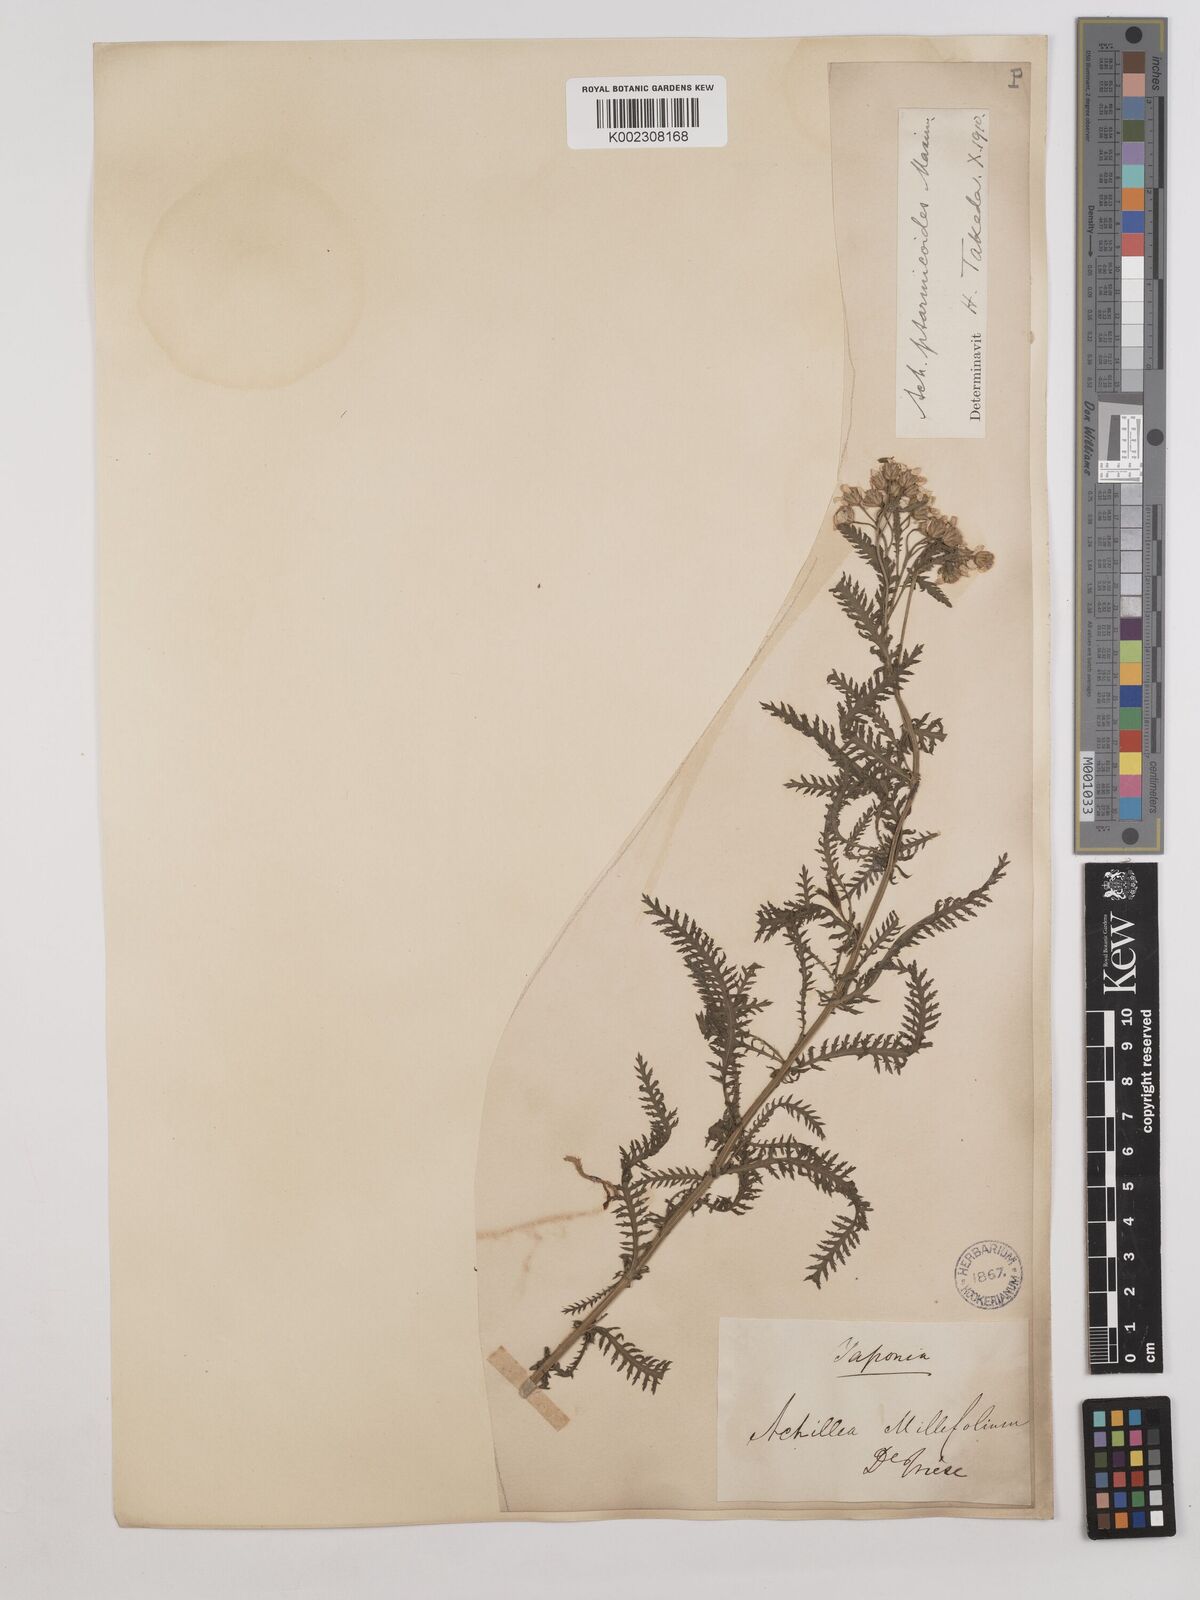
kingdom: Plantae
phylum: Tracheophyta
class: Magnoliopsida
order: Asterales
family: Asteraceae
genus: Achillea
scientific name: Achillea ptarmicoides
